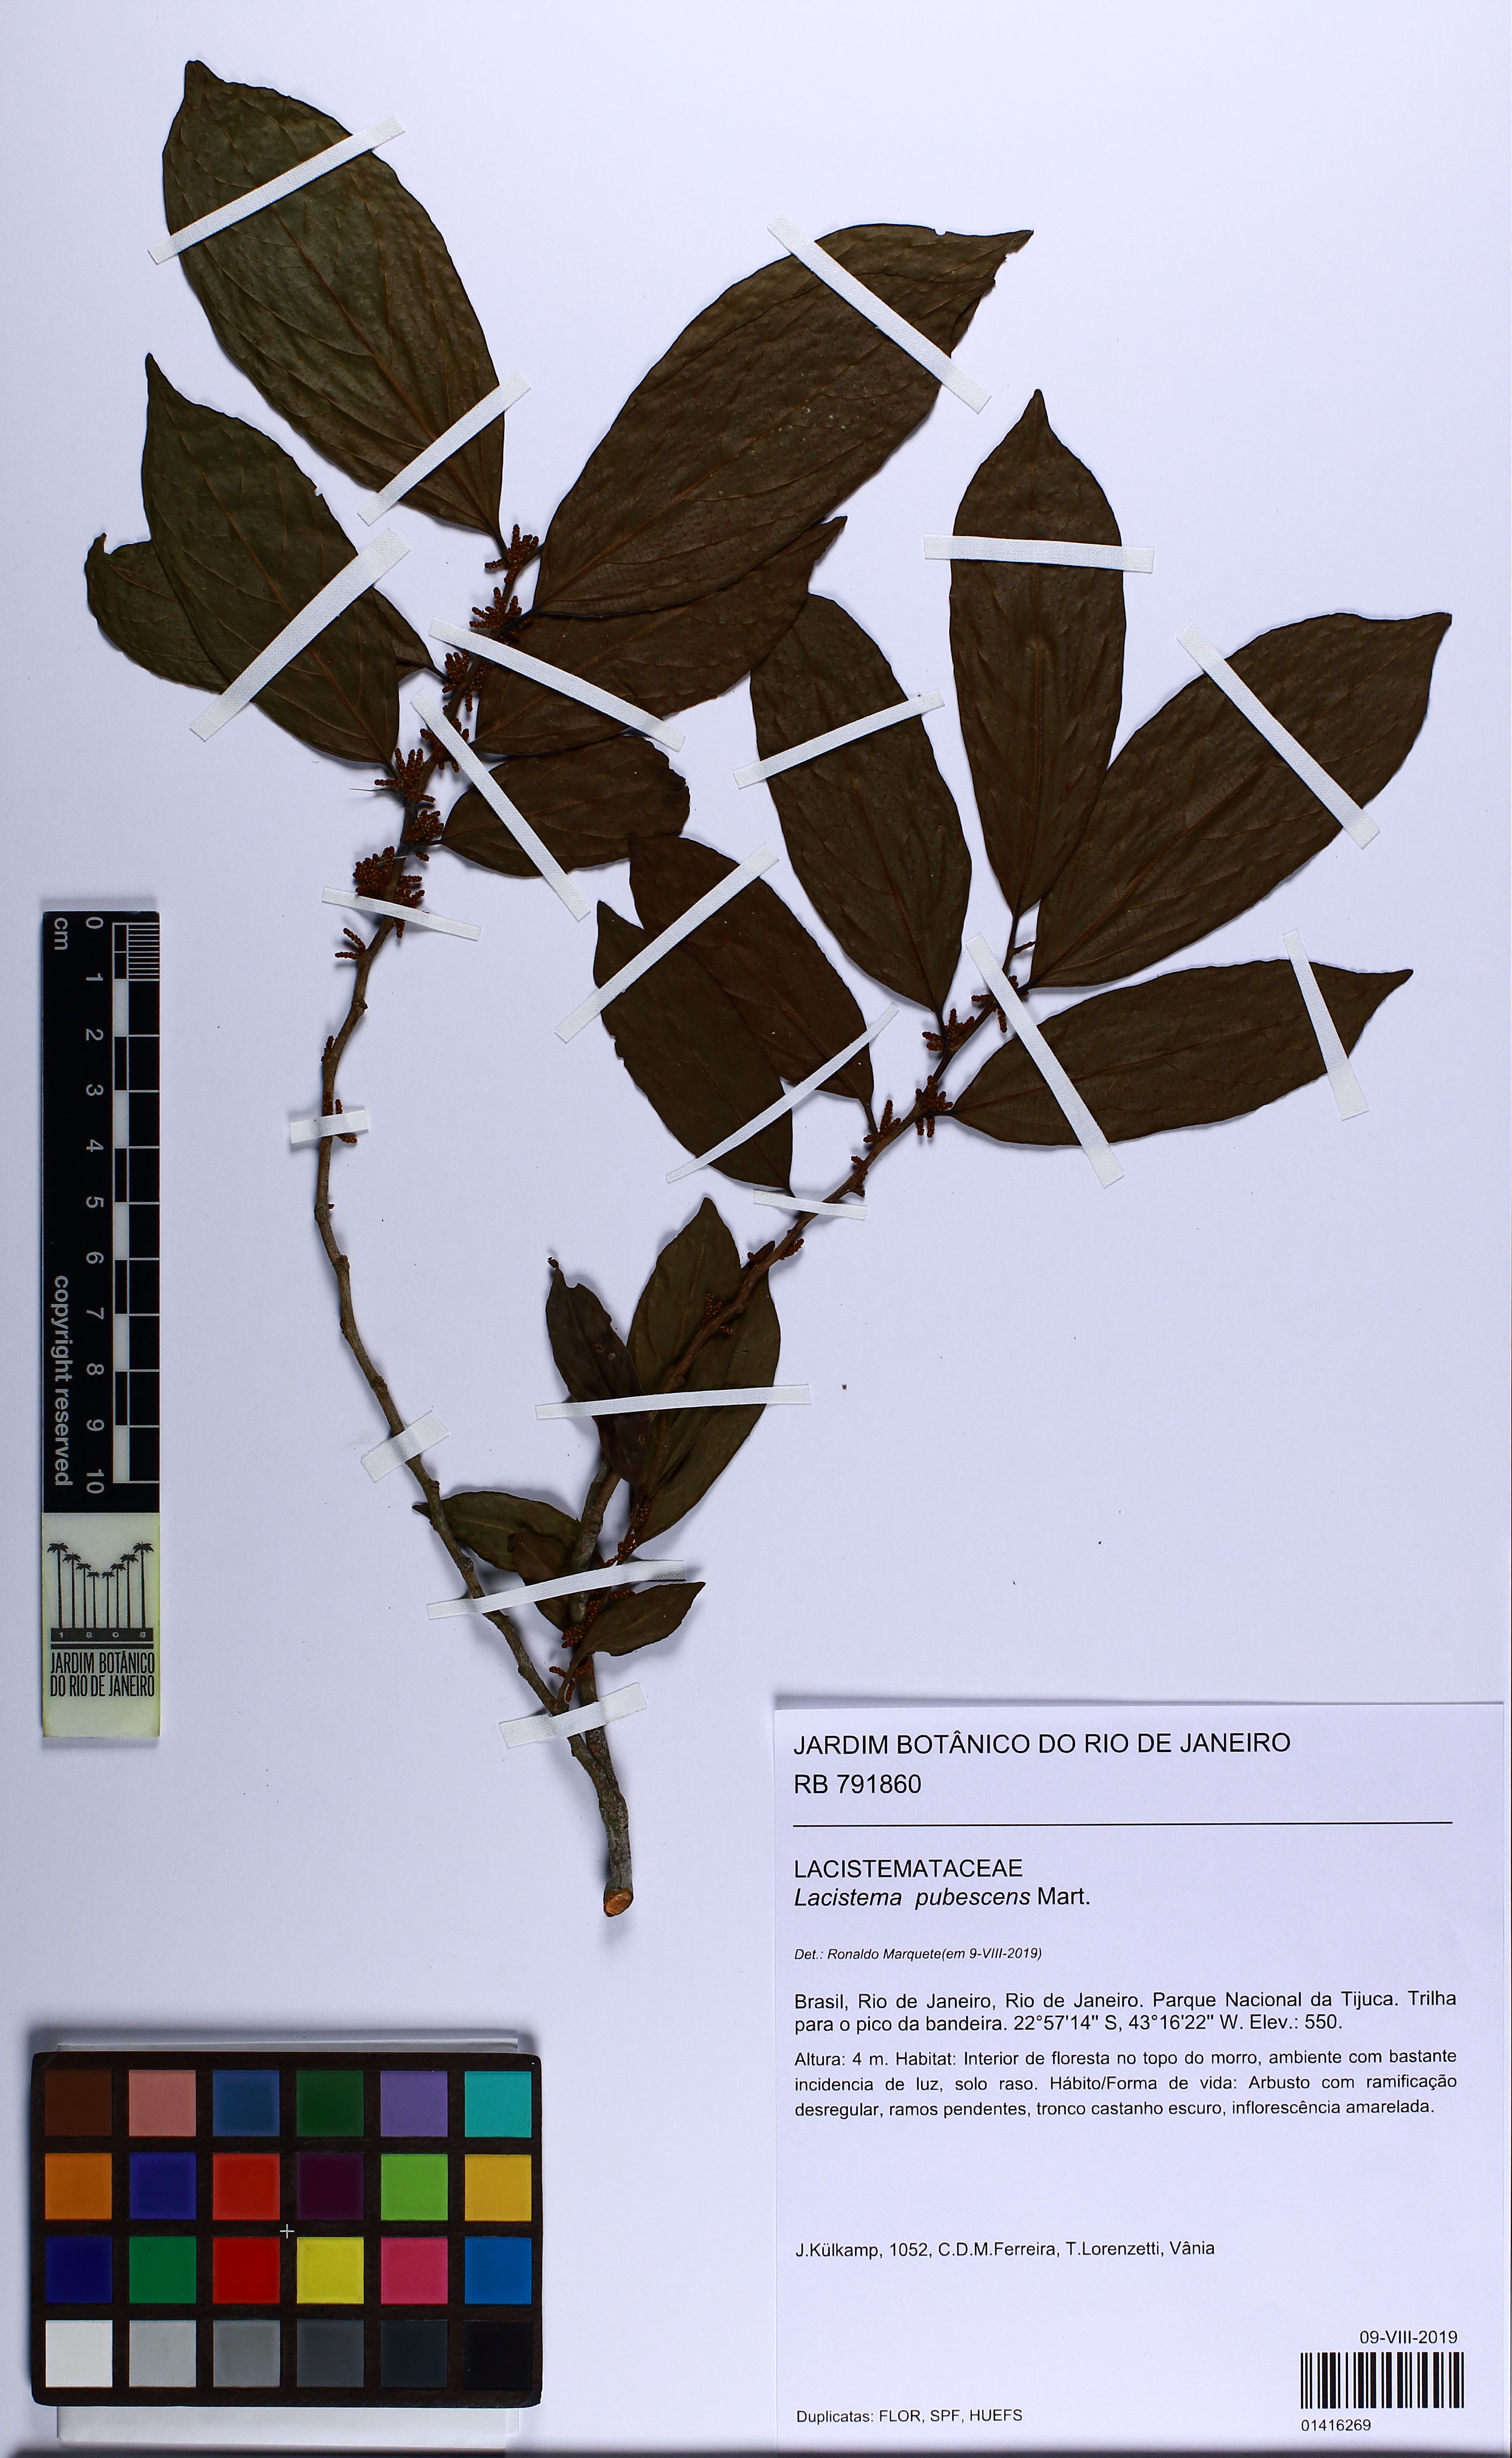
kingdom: Plantae
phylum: Tracheophyta
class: Magnoliopsida
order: Malpighiales
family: Lacistemataceae
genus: Lacistema
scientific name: Lacistema pubescens
